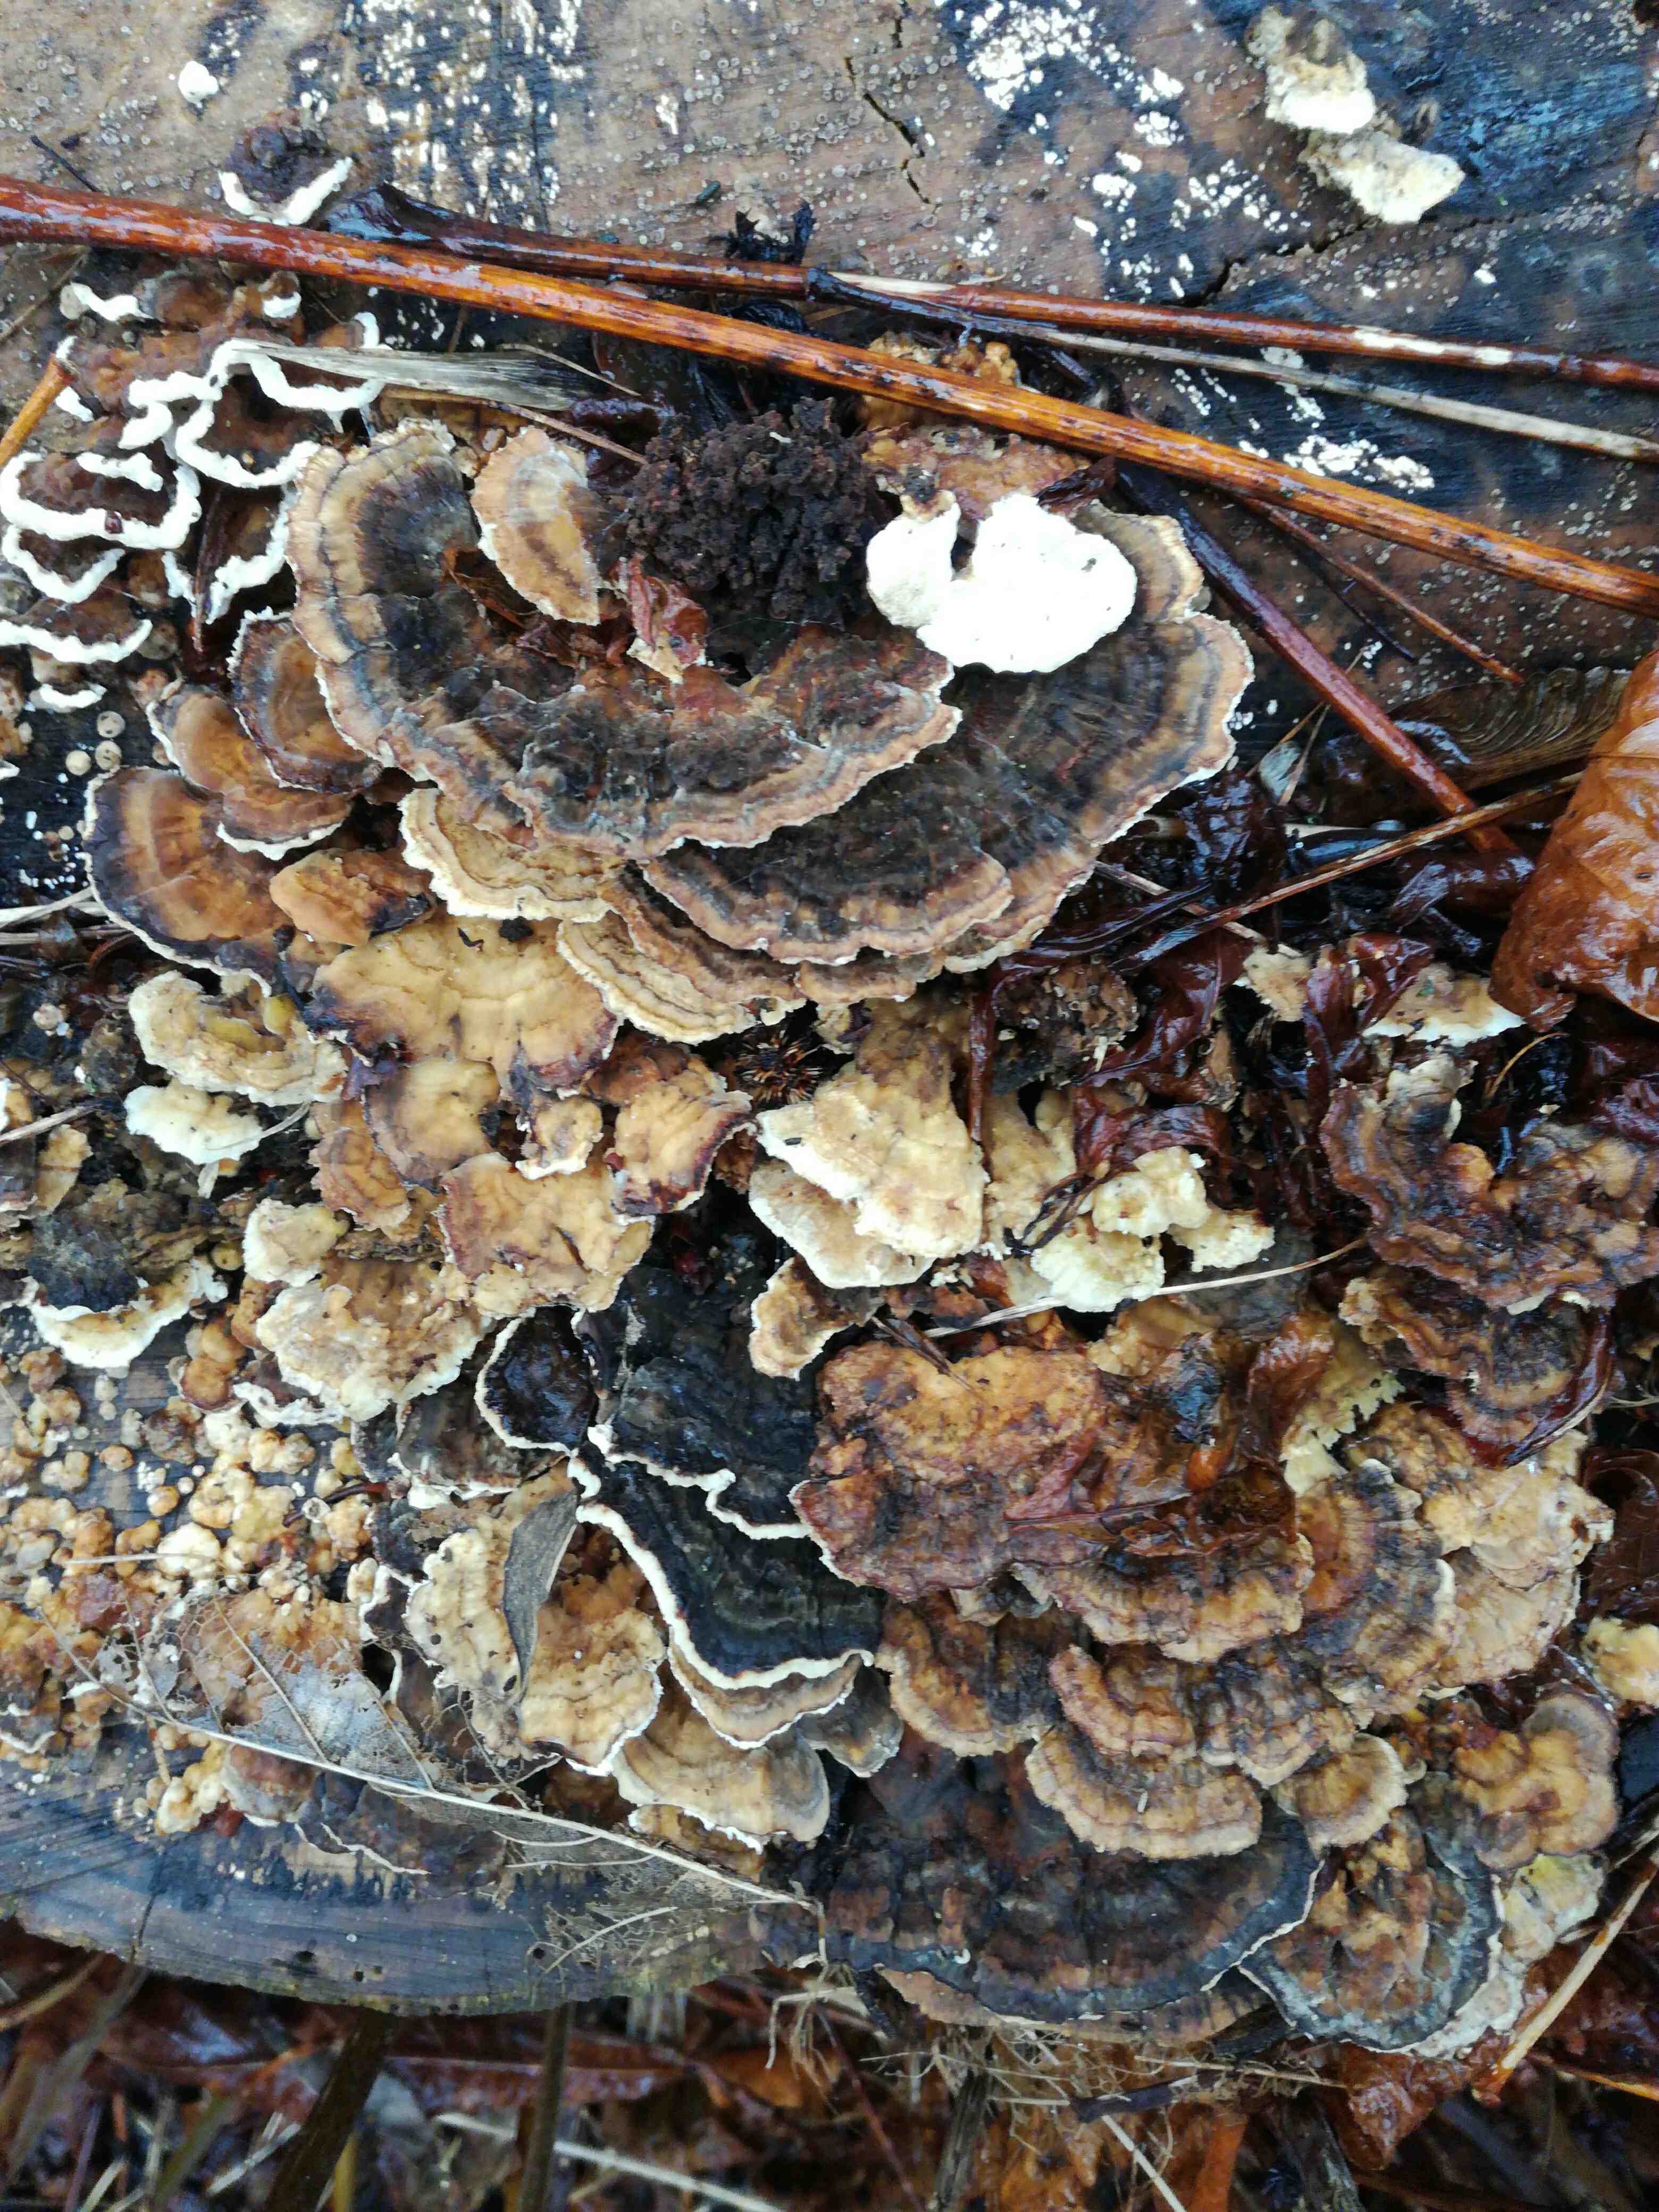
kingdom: Fungi
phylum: Basidiomycota
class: Agaricomycetes
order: Polyporales
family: Polyporaceae
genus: Trametes
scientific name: Trametes versicolor
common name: broget læderporesvamp
